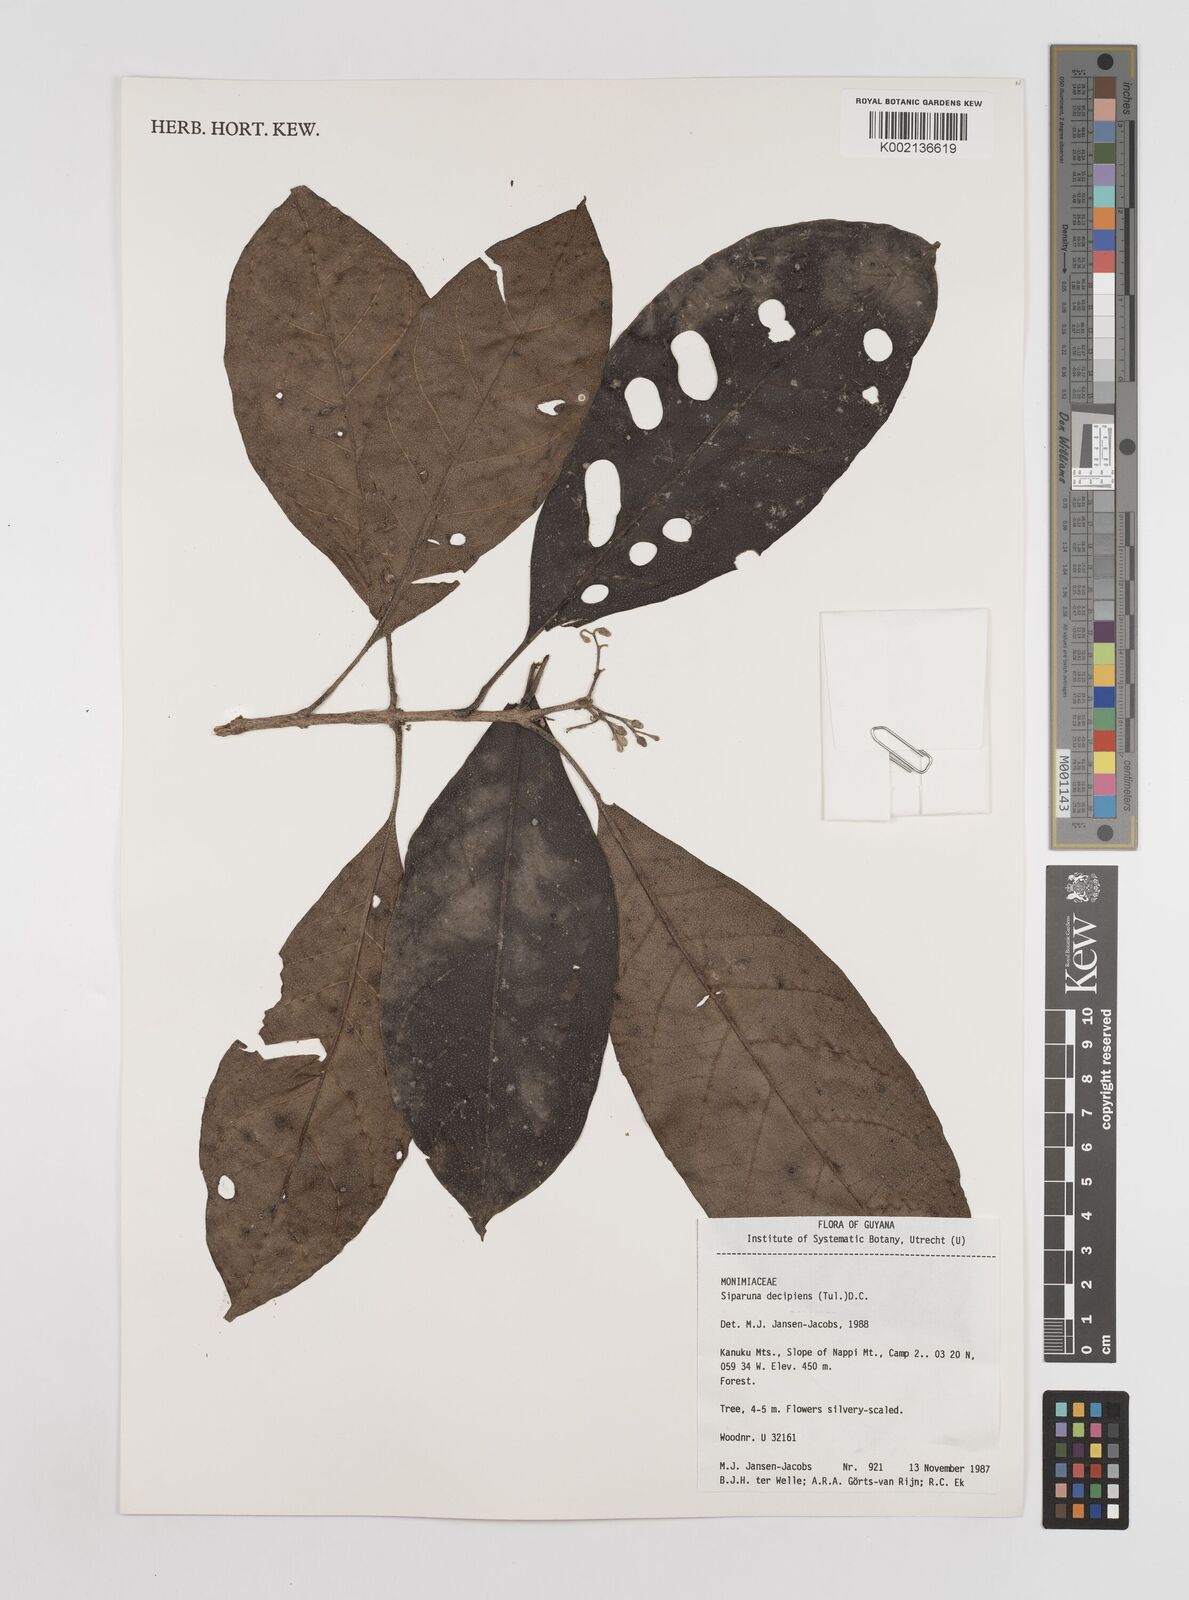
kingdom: Plantae
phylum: Tracheophyta
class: Magnoliopsida
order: Laurales
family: Siparunaceae
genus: Siparuna
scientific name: Siparuna decipiens
